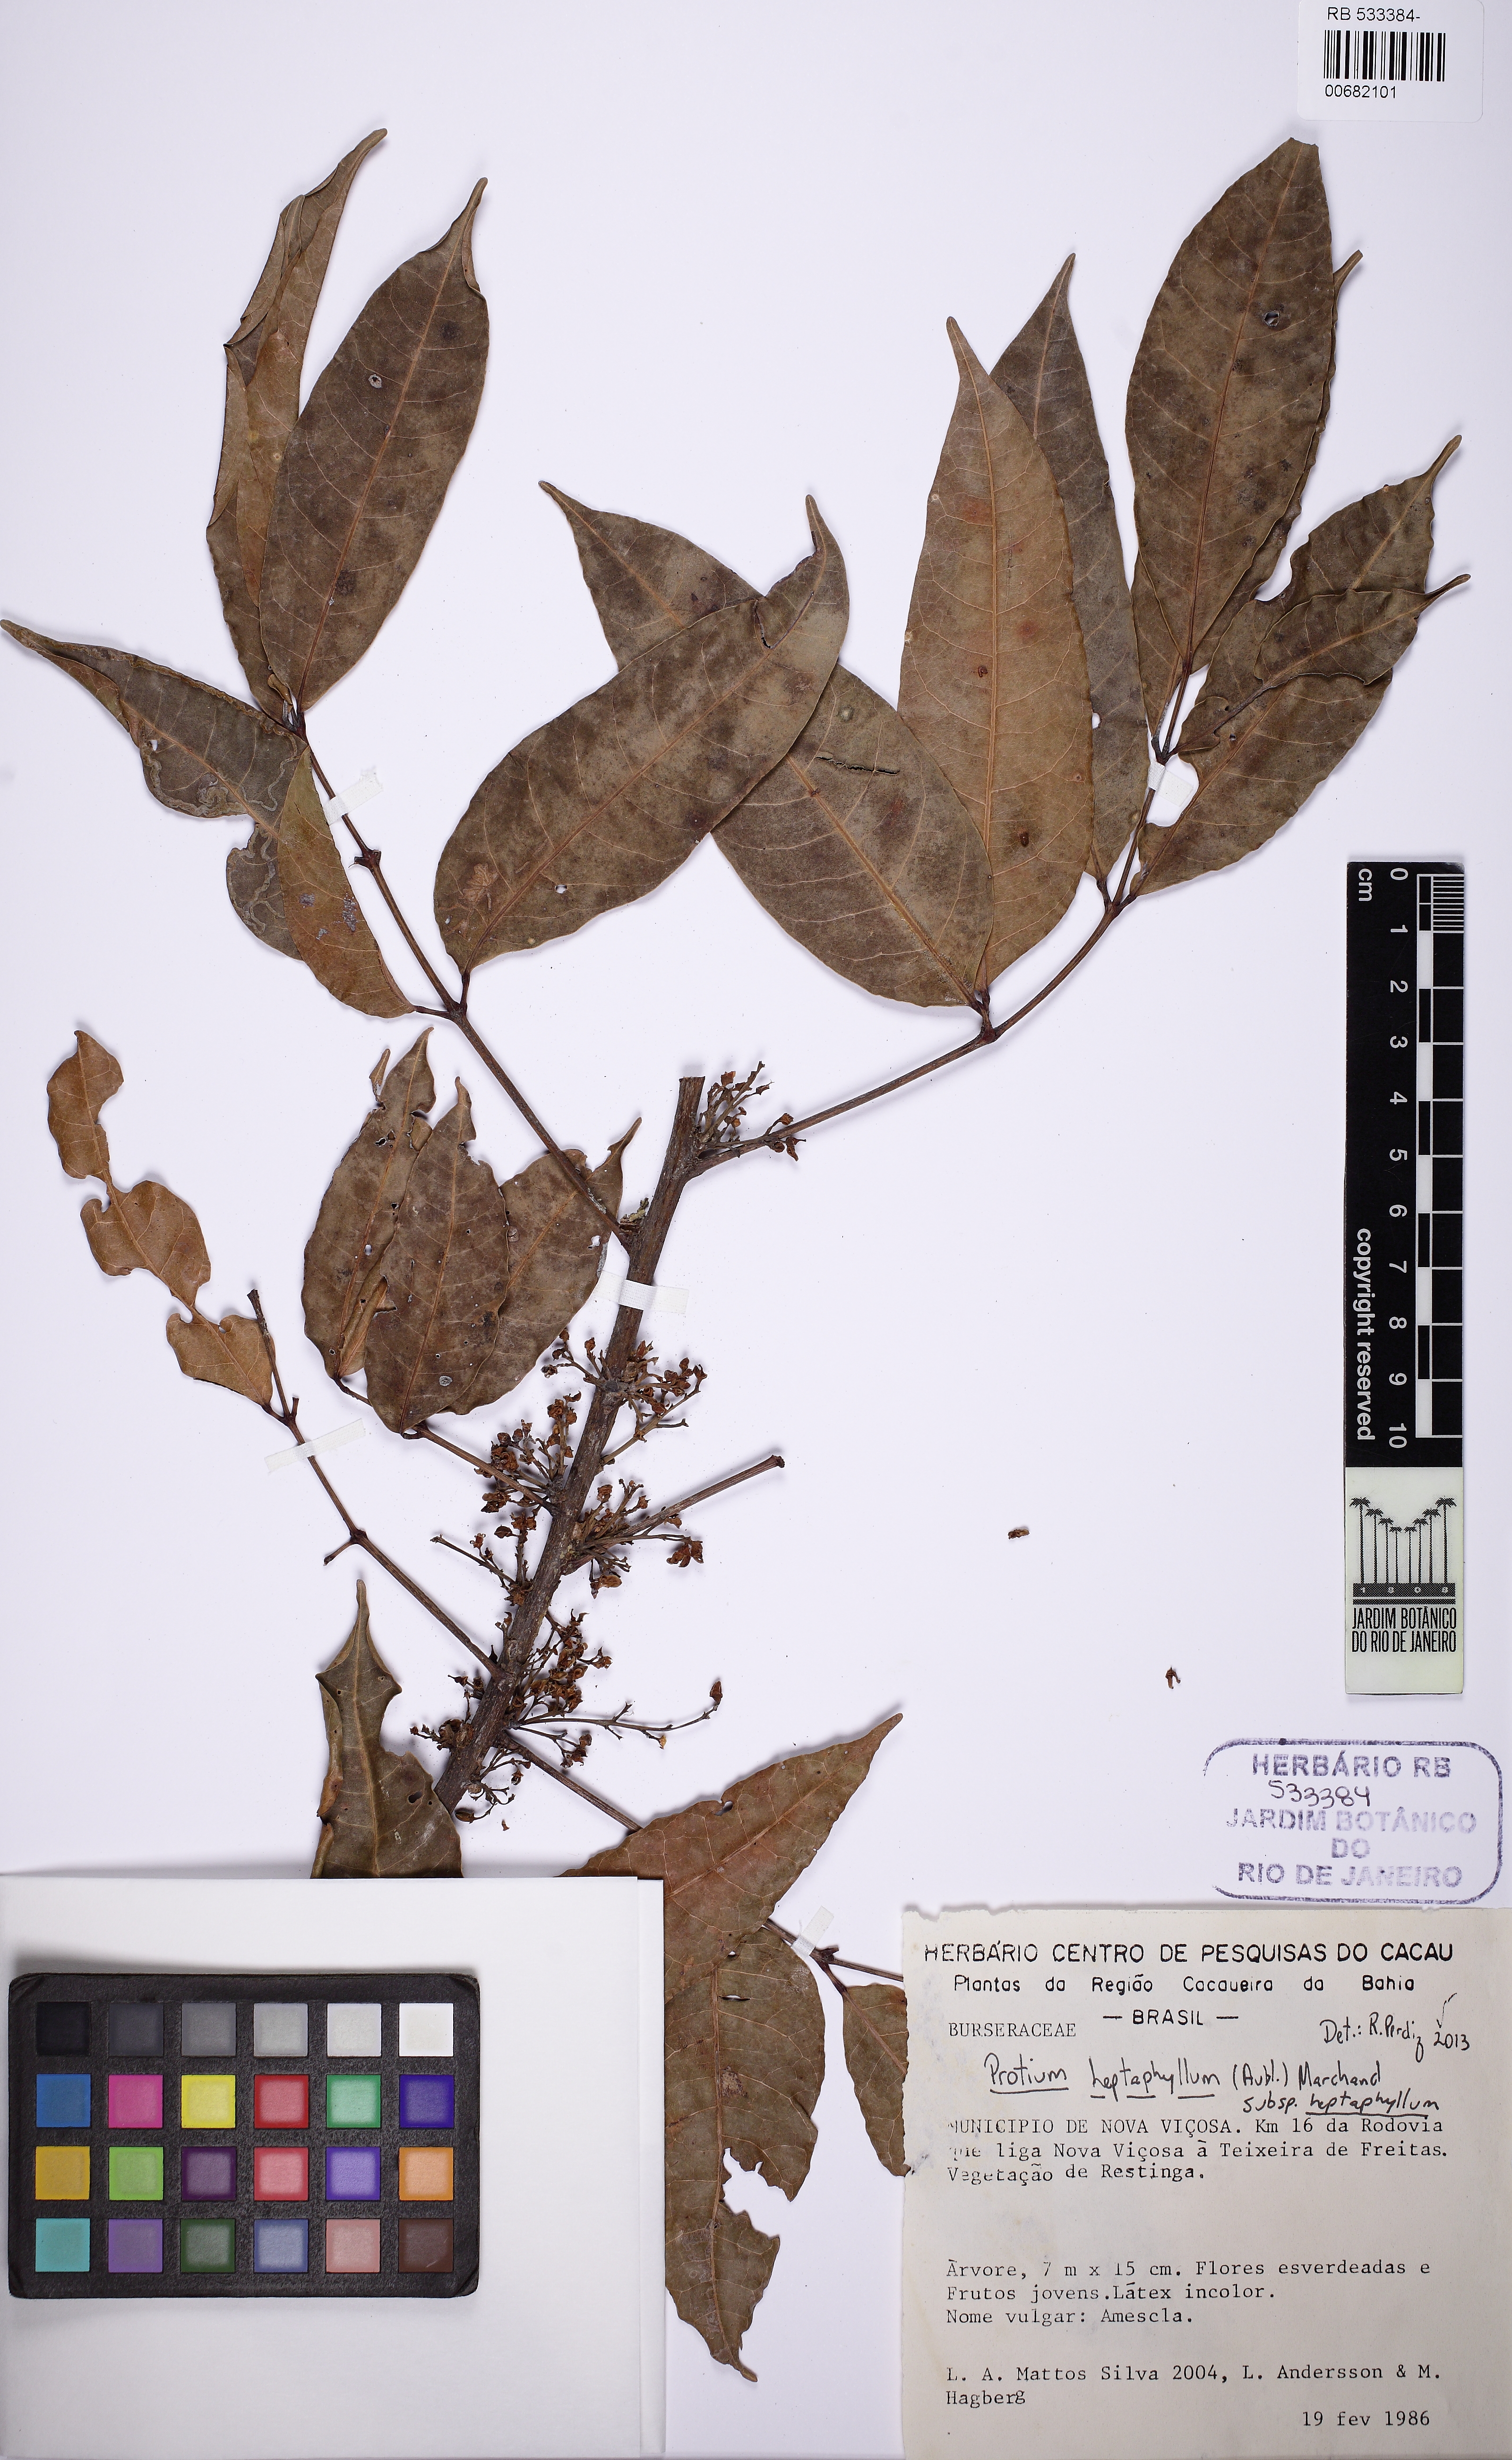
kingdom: Plantae
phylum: Tracheophyta
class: Magnoliopsida
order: Sapindales
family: Burseraceae
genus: Protium
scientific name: Protium heptaphyllum
